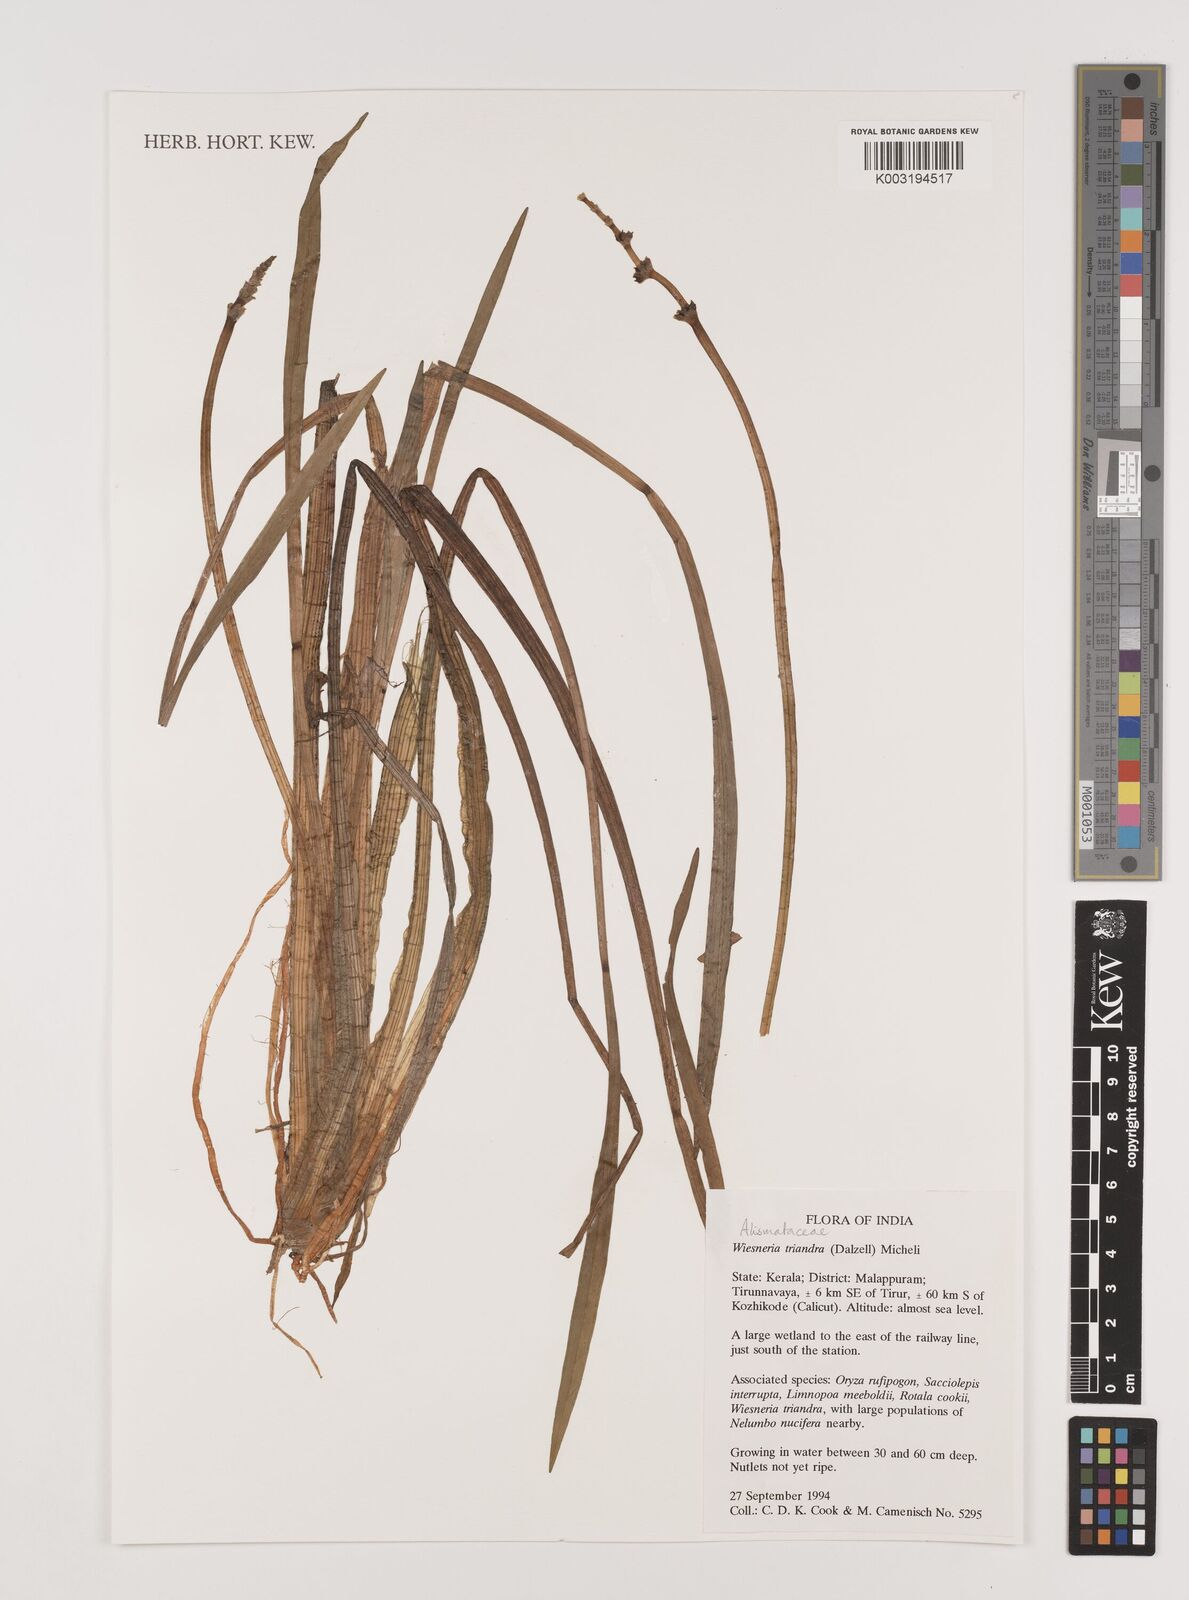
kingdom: Plantae
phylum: Tracheophyta
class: Liliopsida
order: Alismatales
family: Alismataceae
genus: Wiesneria
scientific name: Wiesneria triandra
